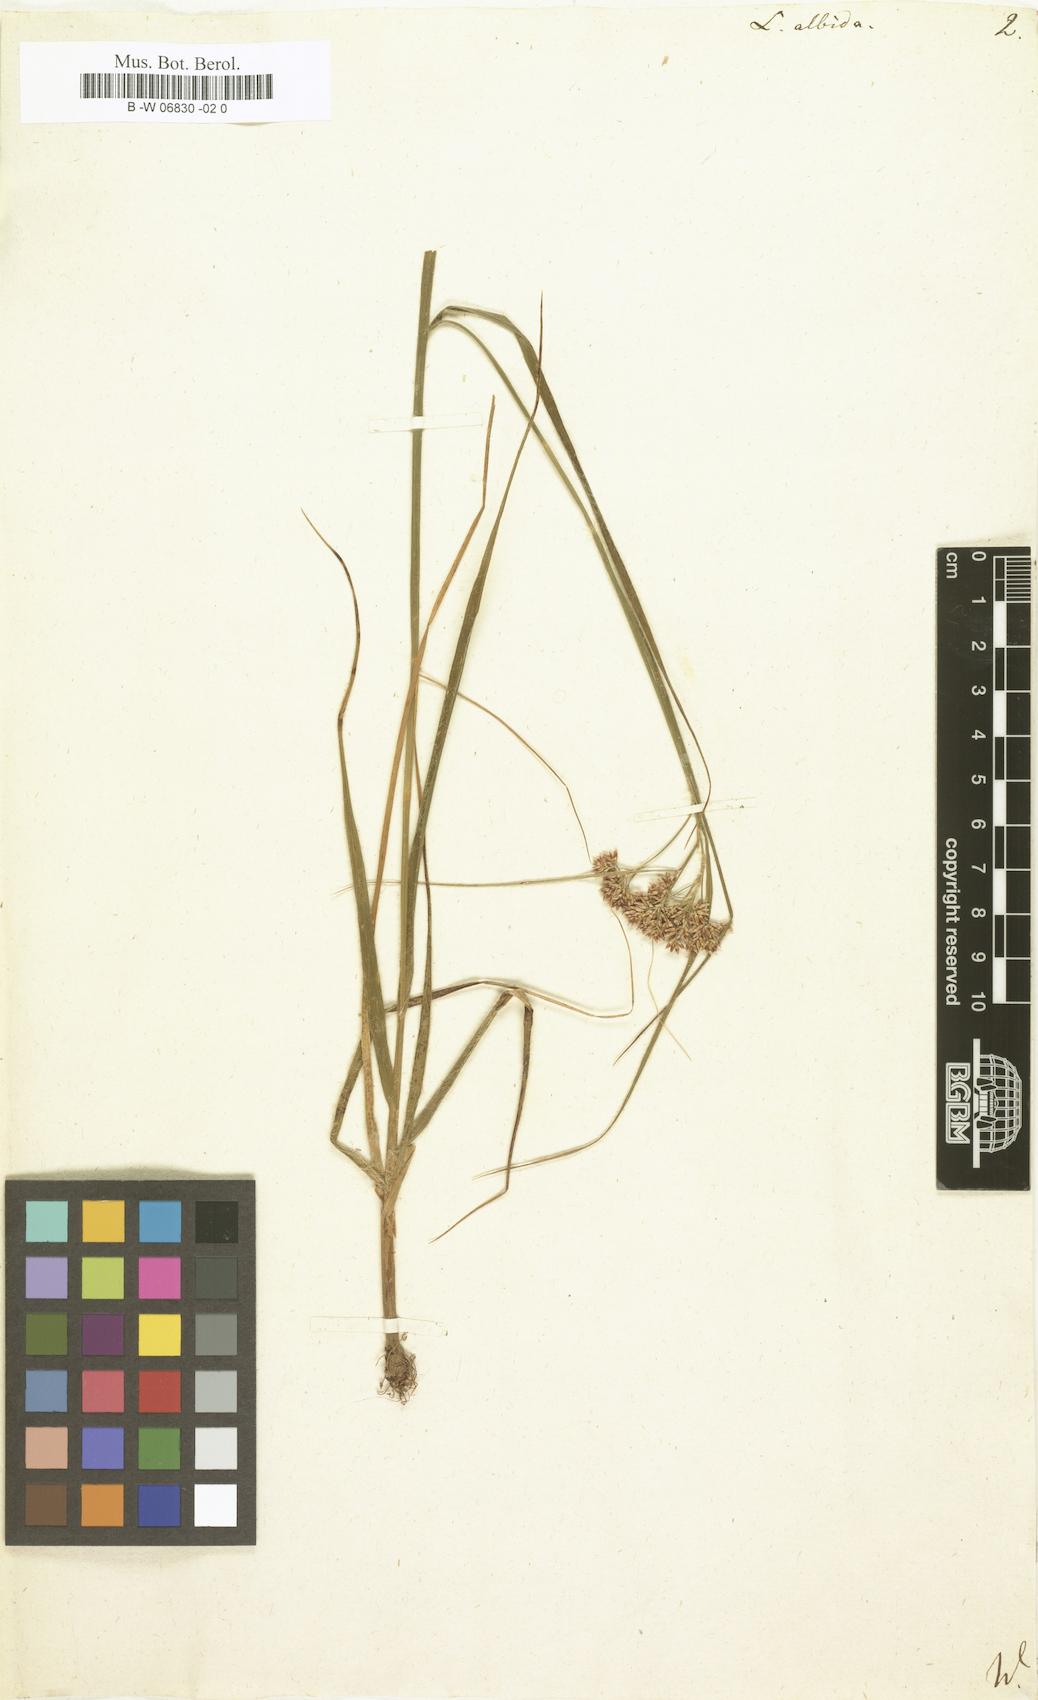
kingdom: Plantae
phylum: Tracheophyta
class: Liliopsida
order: Poales
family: Juncaceae
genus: Luzula
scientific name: Luzula albida
